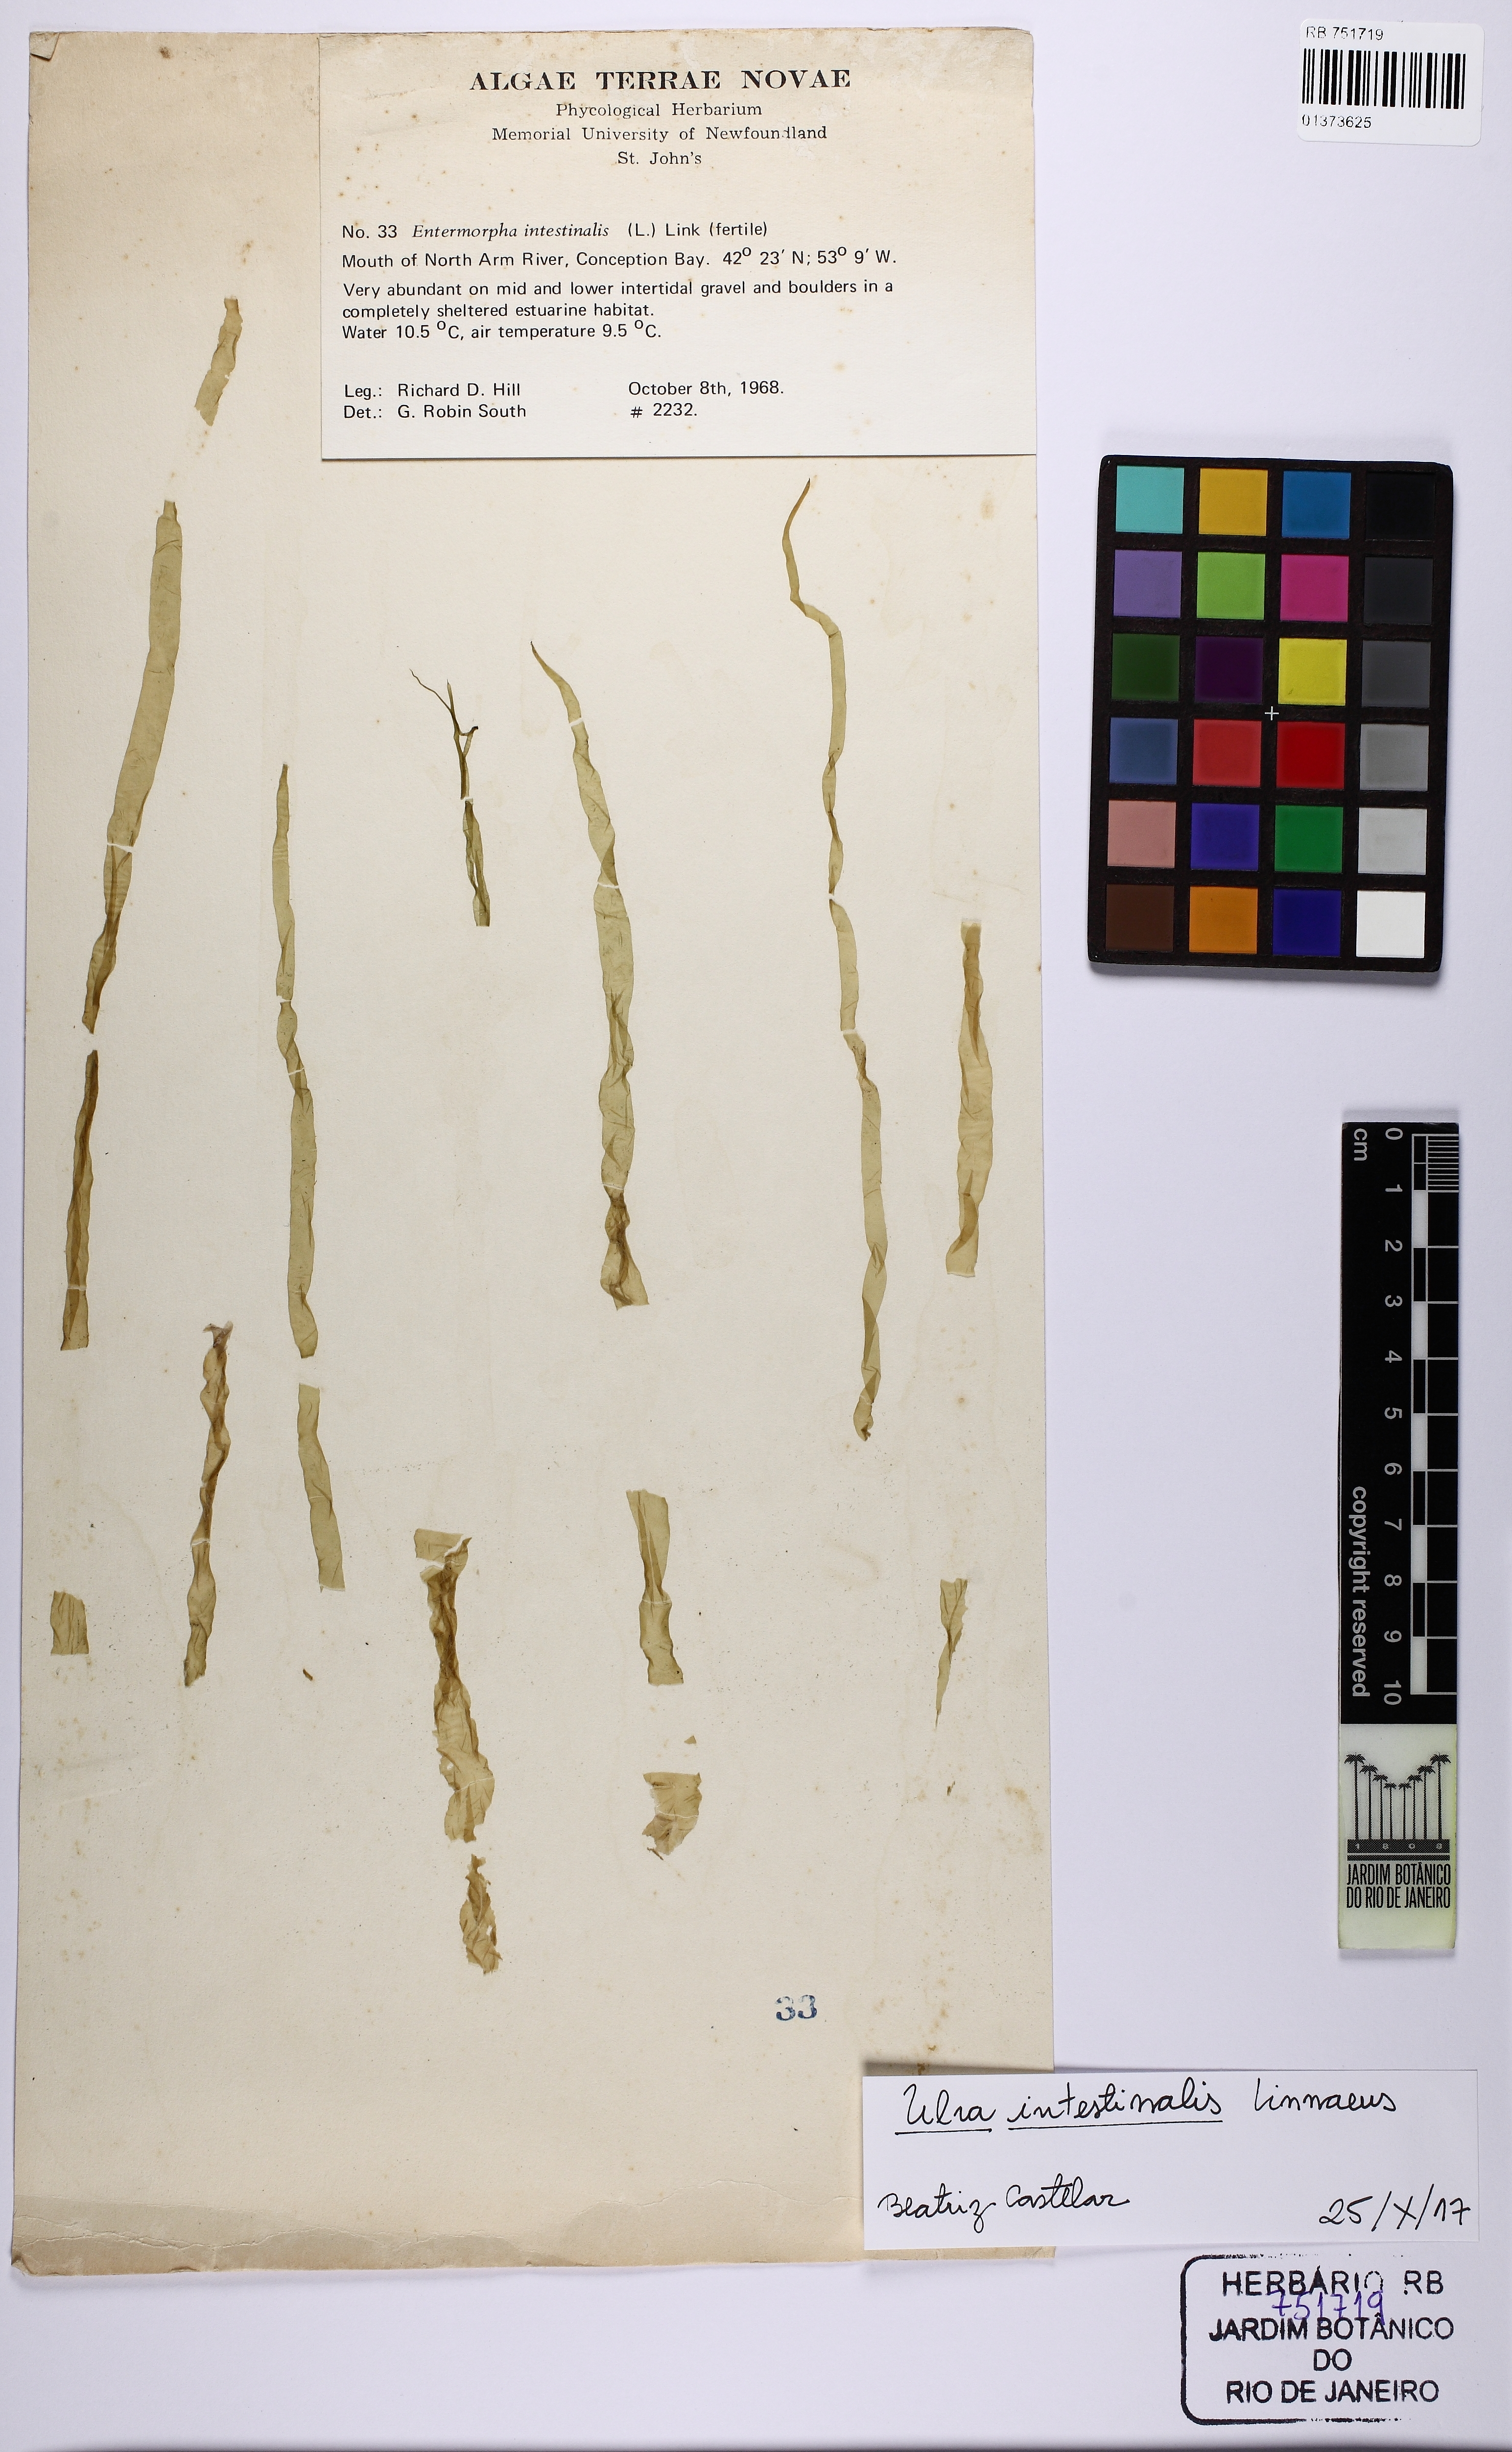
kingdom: Plantae
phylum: Chlorophyta
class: Ulvophyceae
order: Ulvales
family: Ulvaceae
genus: Ulva
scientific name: Ulva intestinalis
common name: Gut weed
